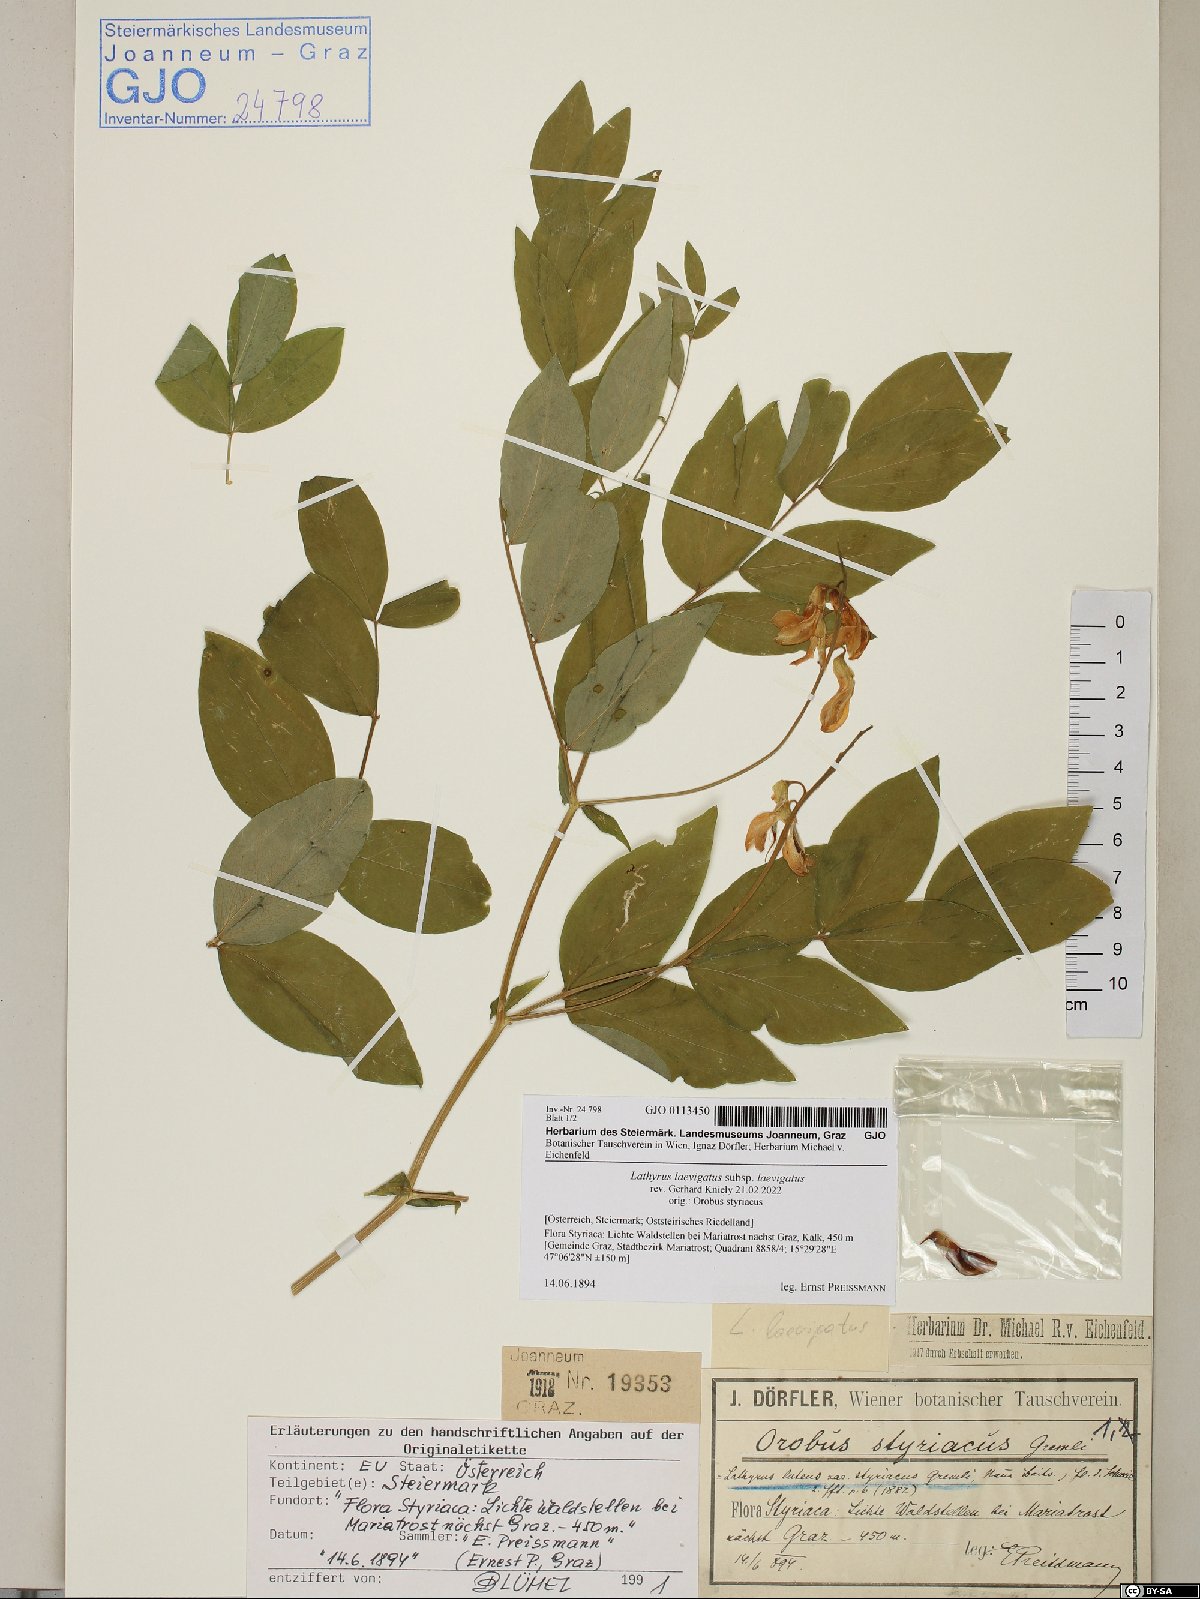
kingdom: Plantae
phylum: Tracheophyta
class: Magnoliopsida
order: Fabales
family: Fabaceae
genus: Lathyrus
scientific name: Lathyrus laevigatus
